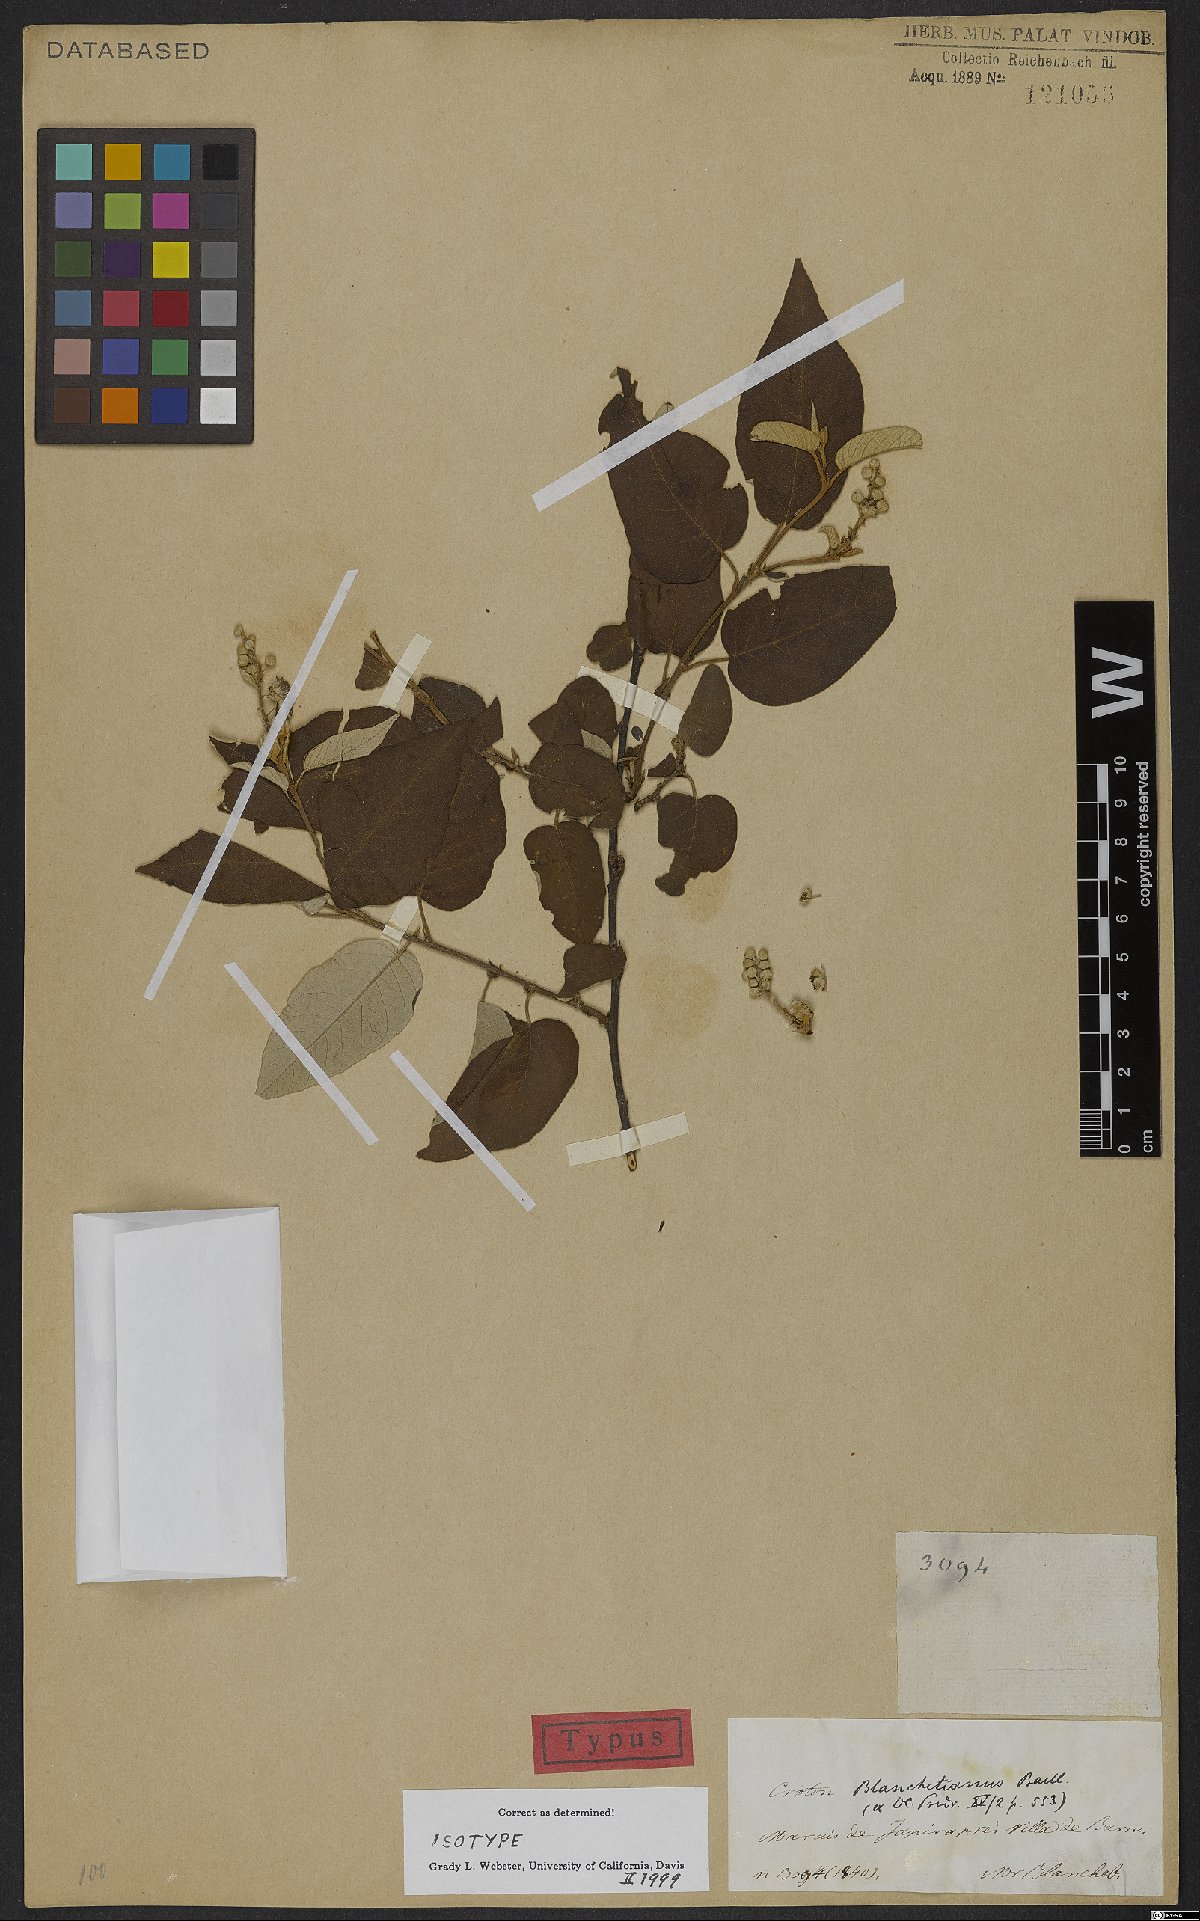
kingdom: Plantae
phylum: Tracheophyta
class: Magnoliopsida
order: Malpighiales
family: Euphorbiaceae
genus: Croton
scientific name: Croton blanchetianus
